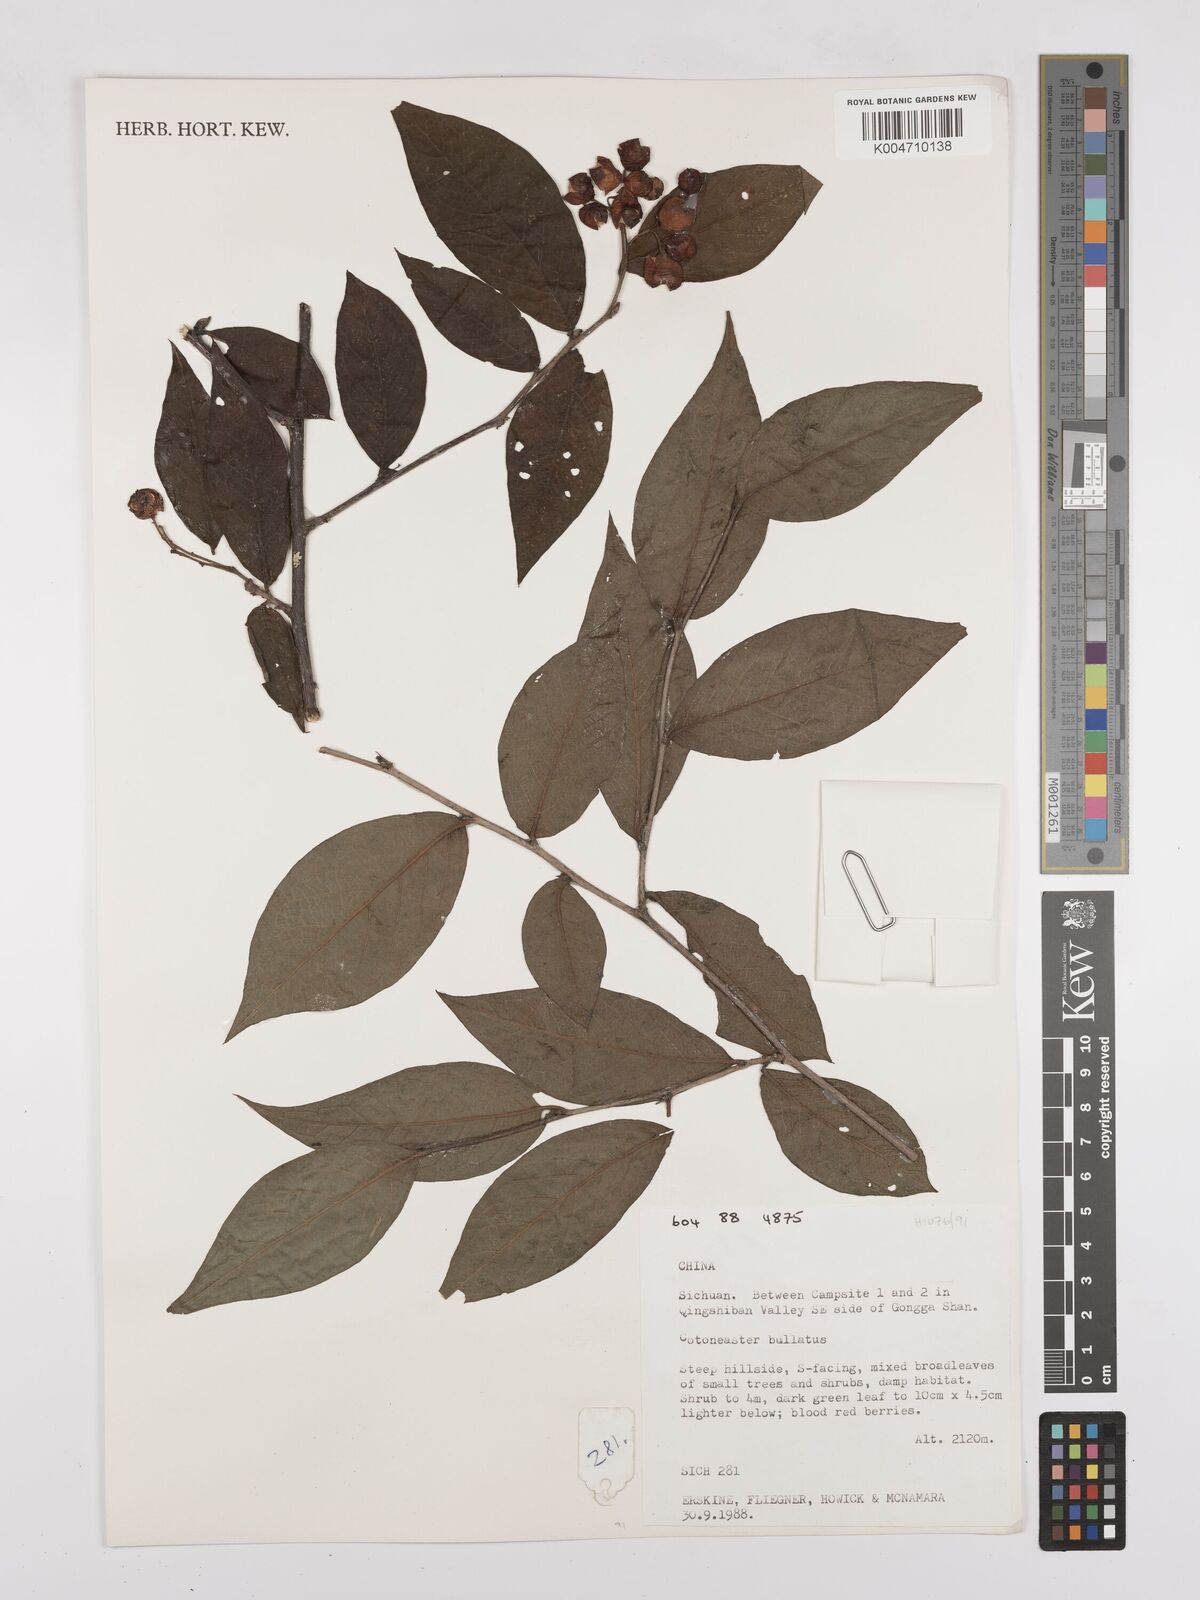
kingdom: Plantae
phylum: Tracheophyta
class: Magnoliopsida
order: Rosales
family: Rosaceae
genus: Cotoneaster
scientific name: Cotoneaster bullatus
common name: Hollyberry cotoneaster
